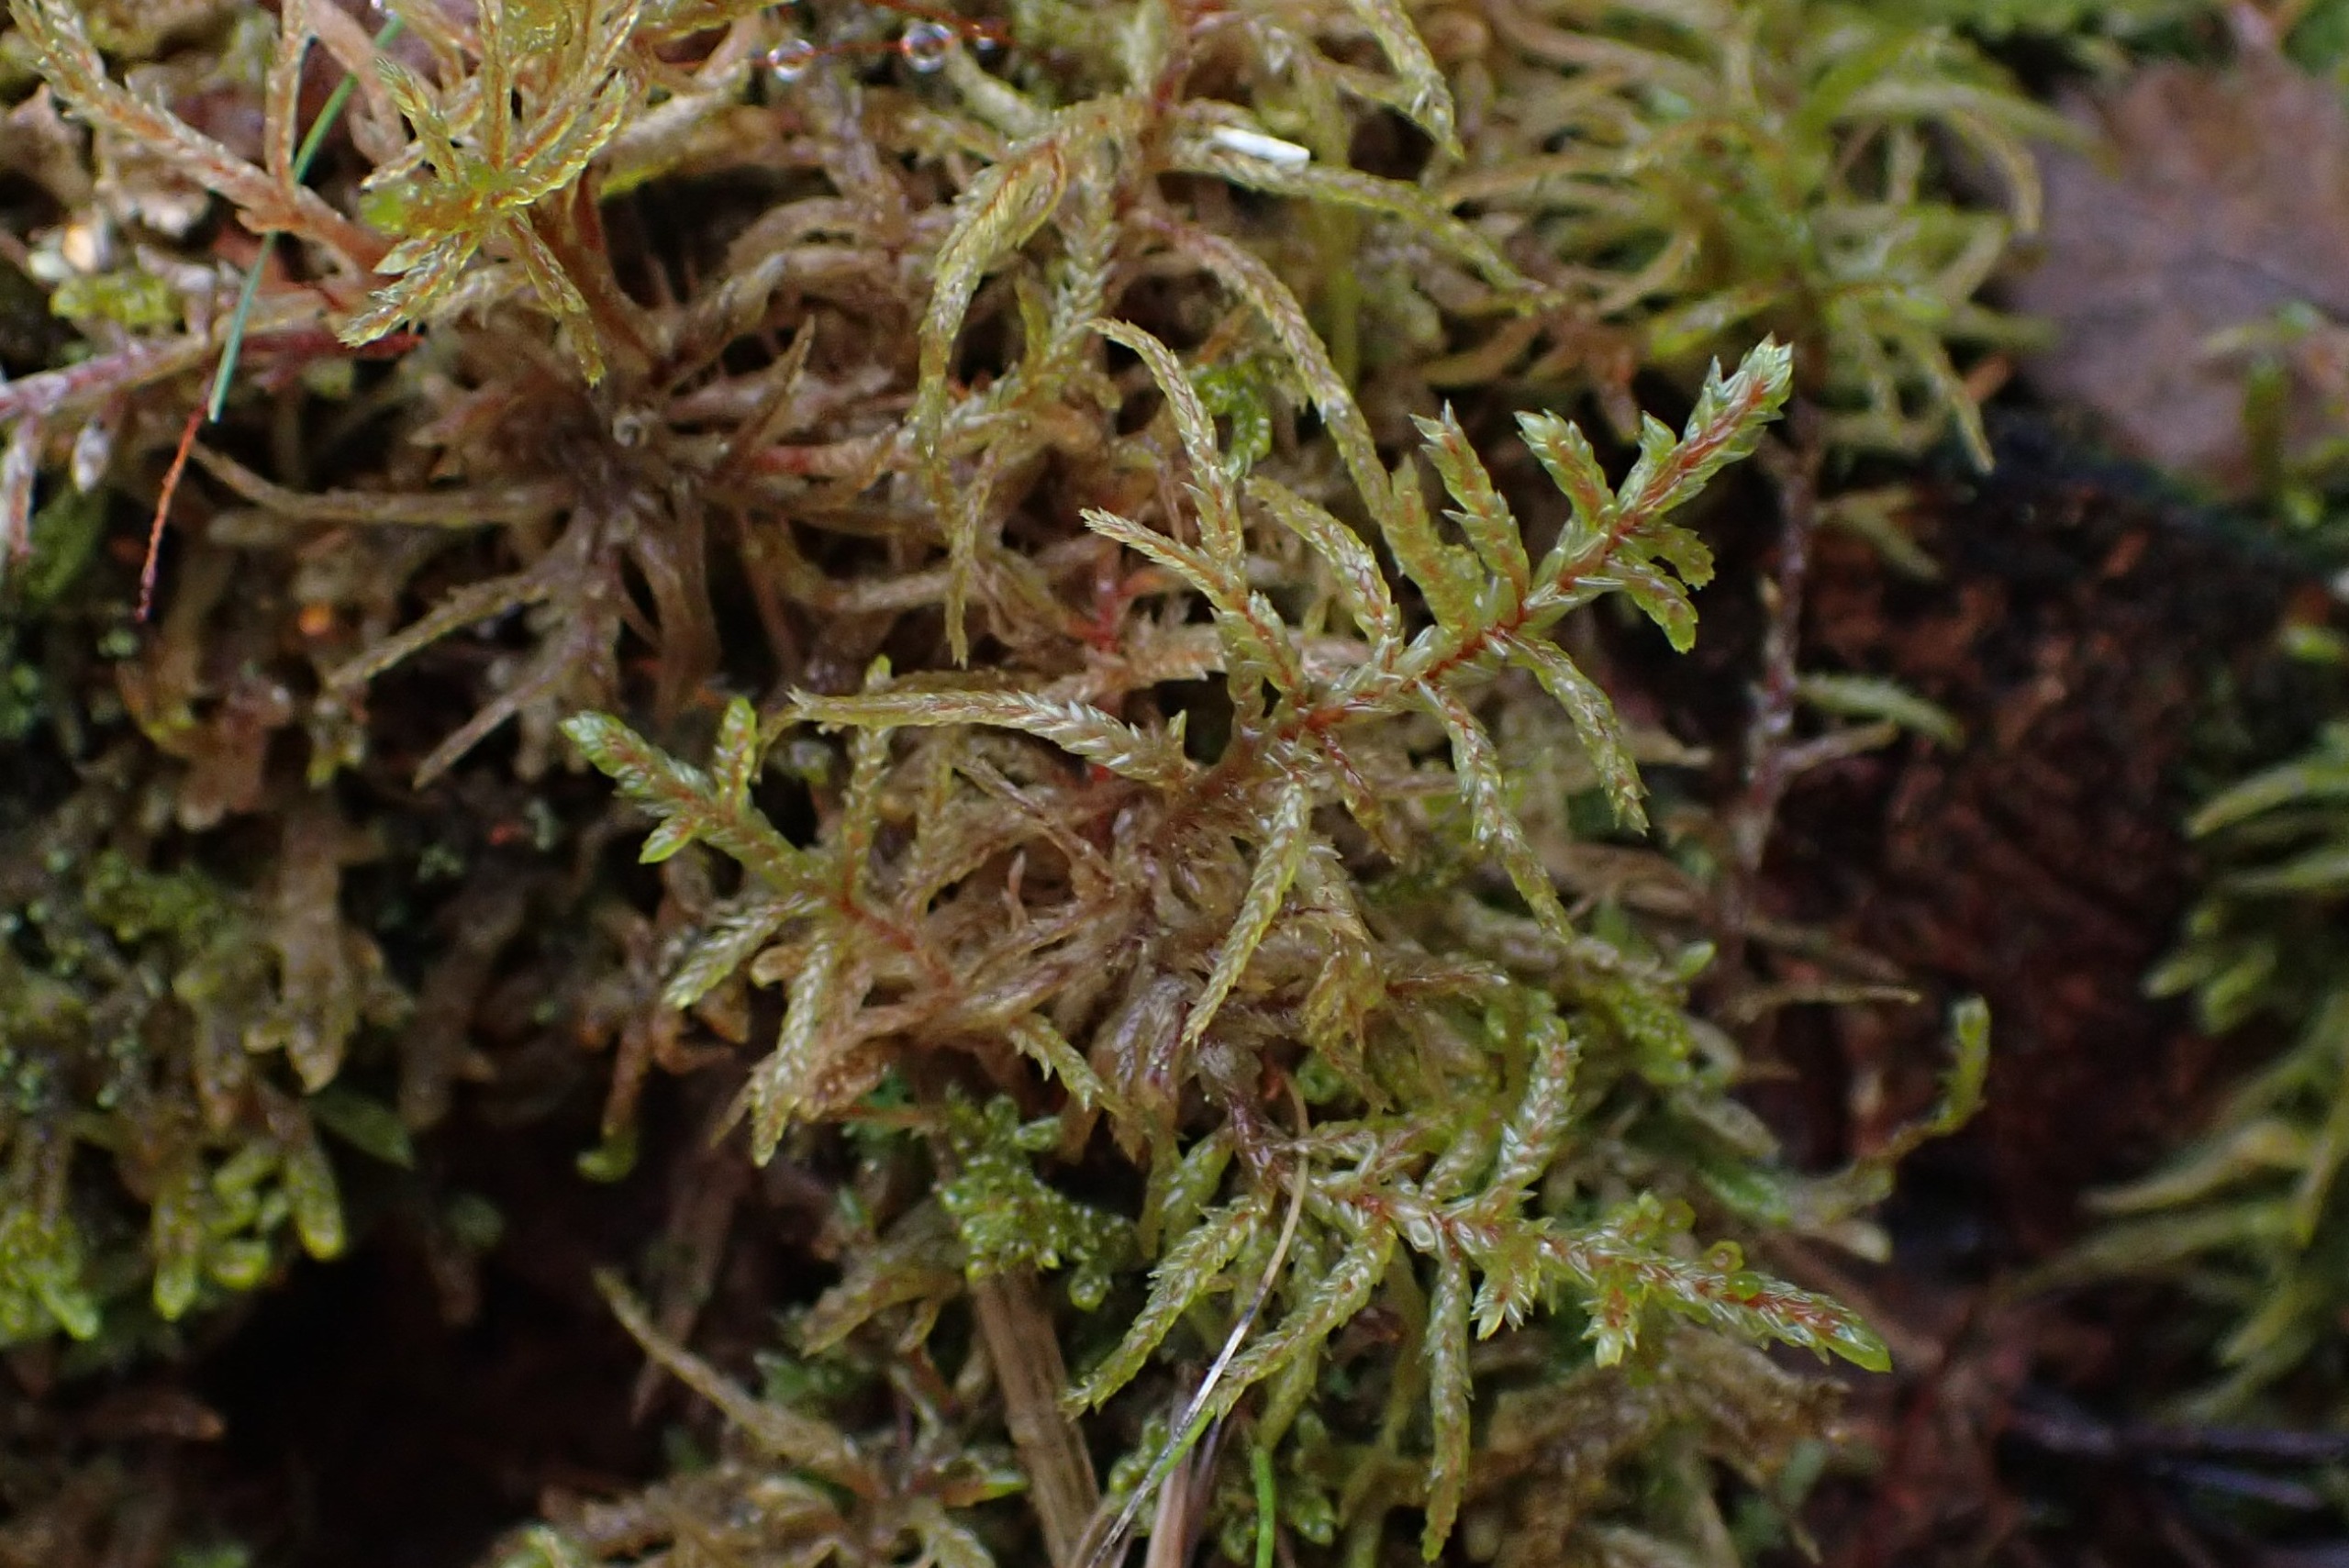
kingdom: Plantae
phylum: Bryophyta
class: Bryopsida
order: Hypnales
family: Hylocomiaceae
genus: Pleurozium
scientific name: Pleurozium schreberi
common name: Trind fyrremos
